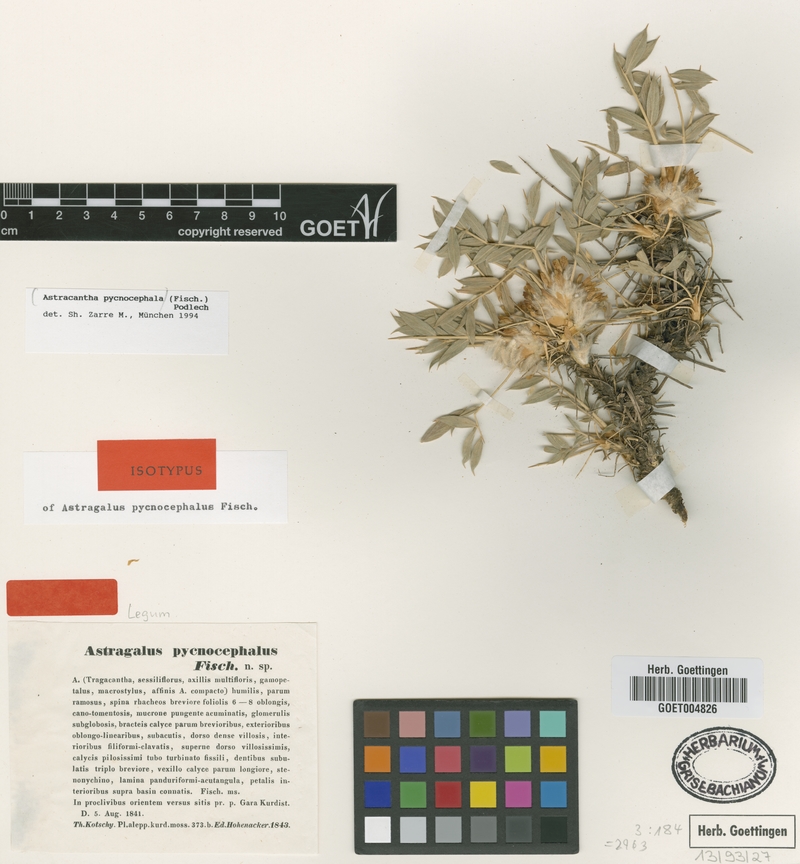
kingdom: Plantae
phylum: Tracheophyta
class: Magnoliopsida
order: Fabales
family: Fabaceae
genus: Astragalus
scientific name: Astragalus pycnocephalus
